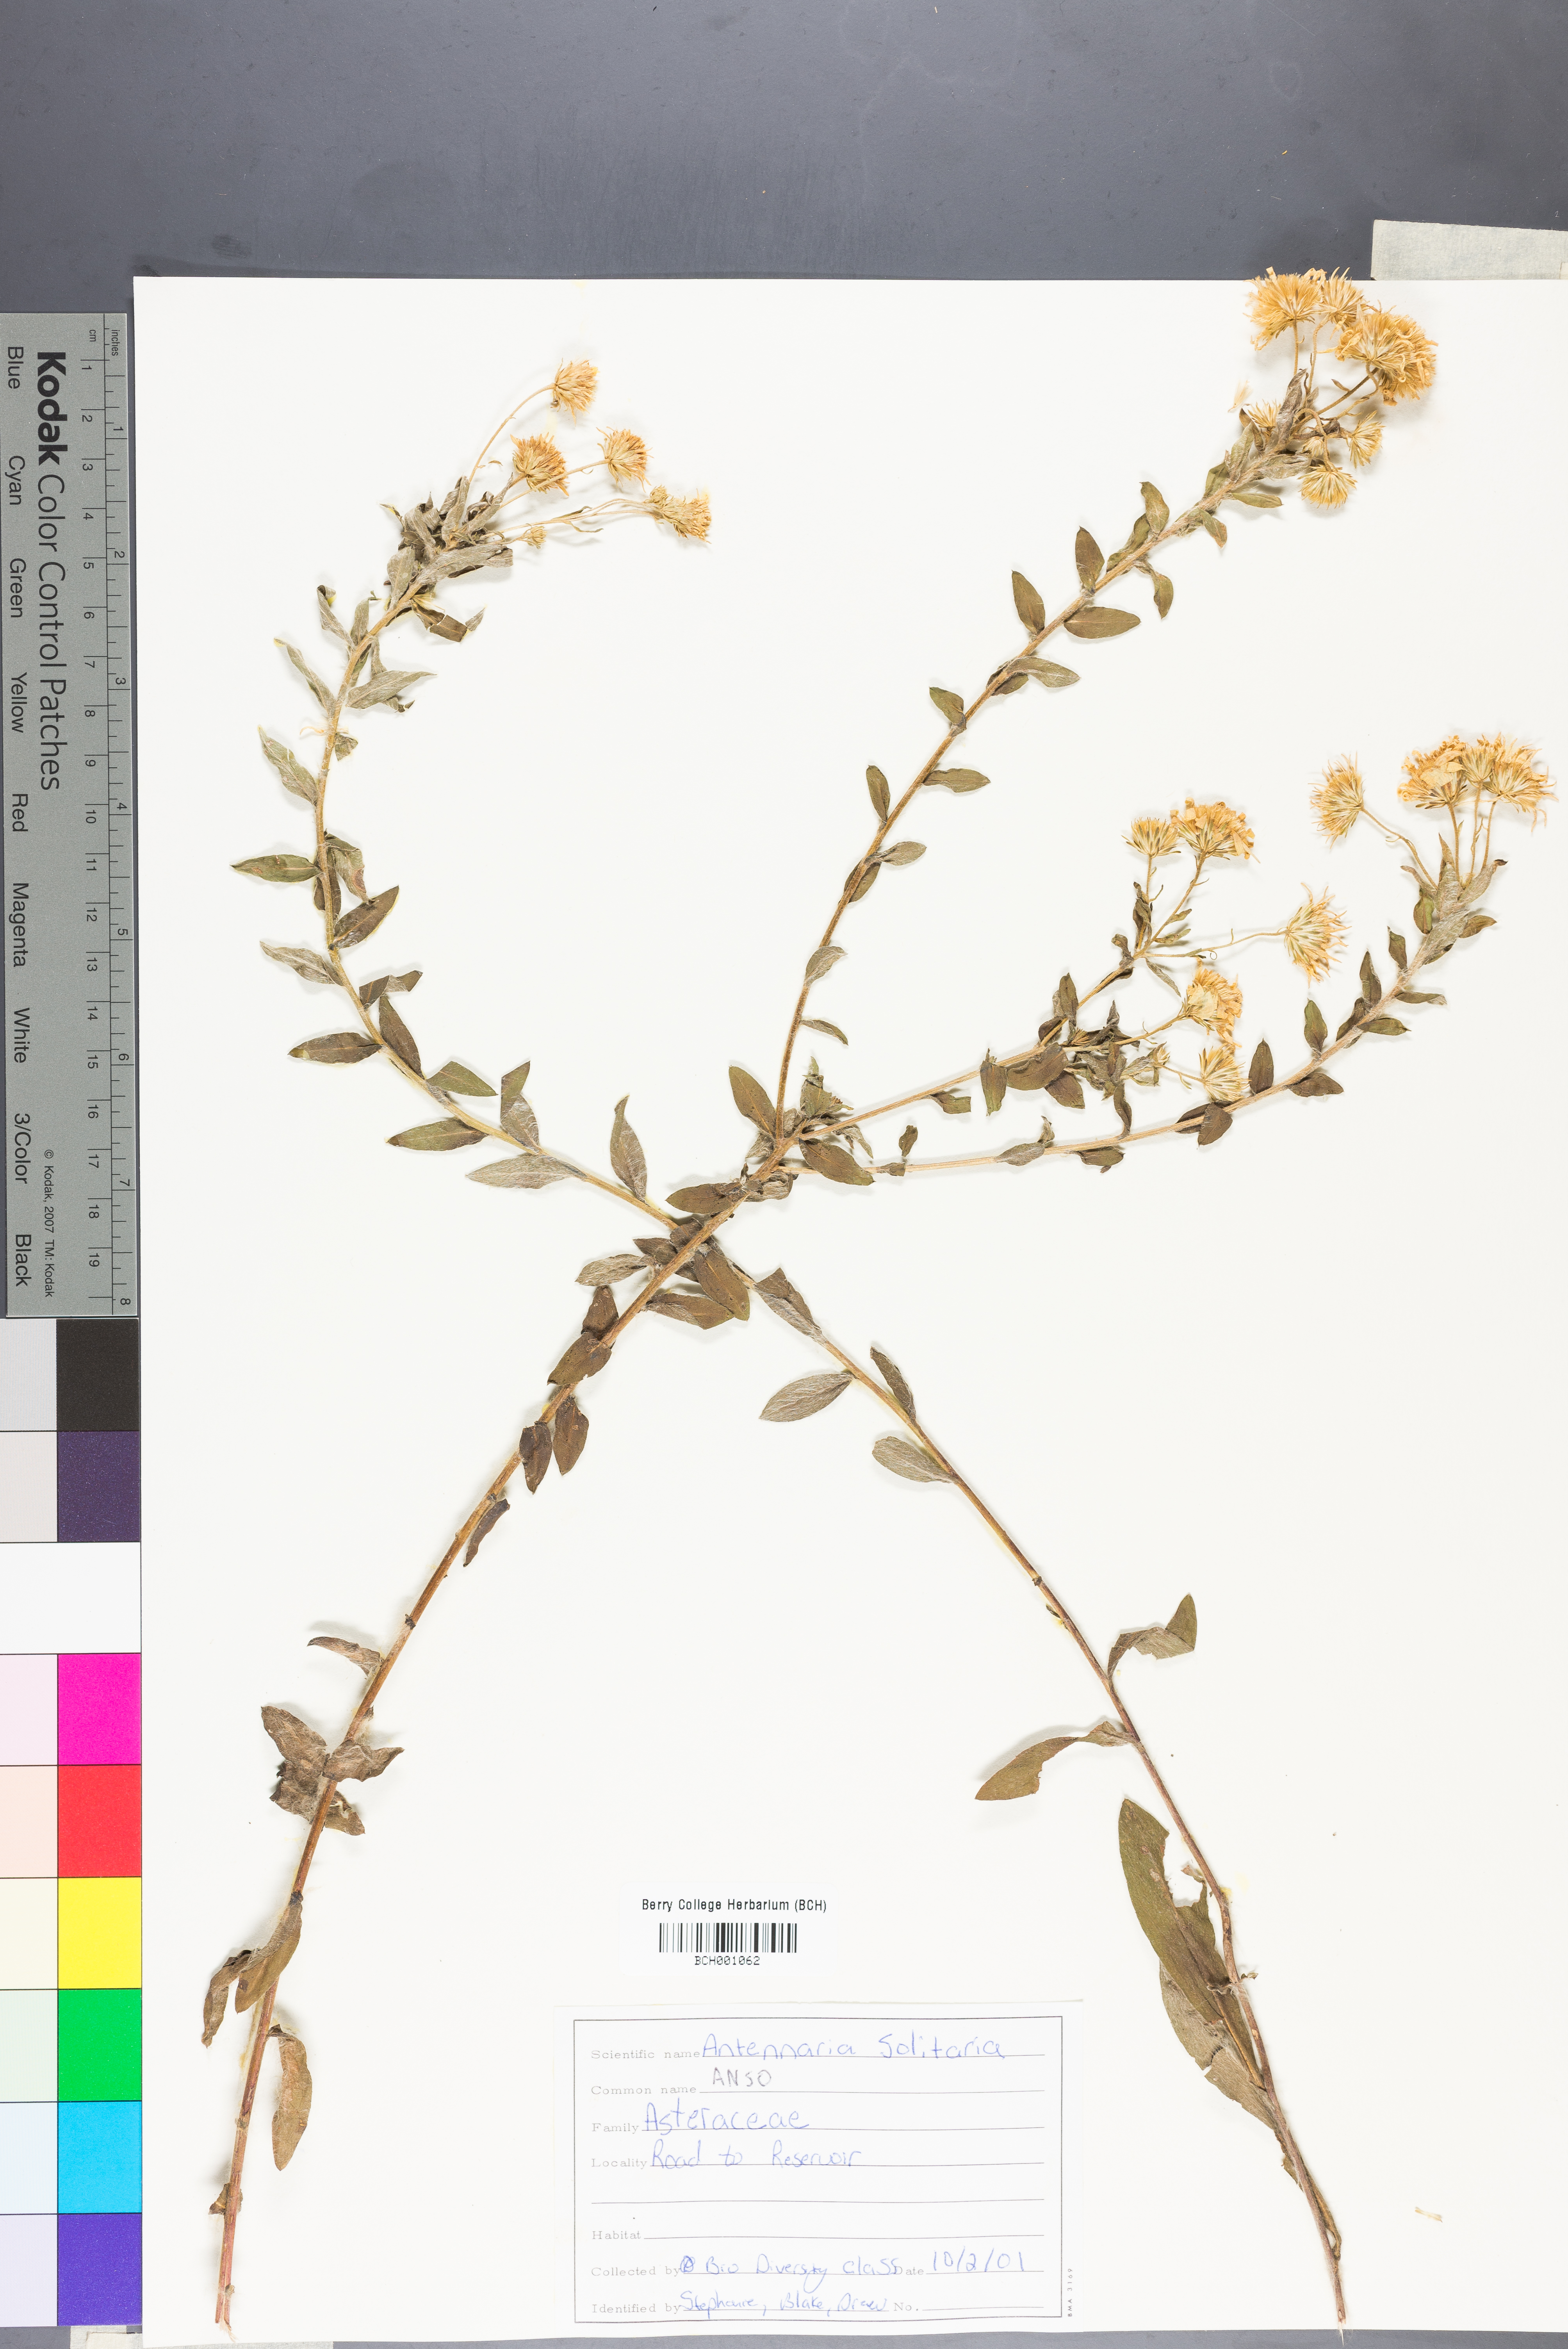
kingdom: Plantae
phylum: Tracheophyta
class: Magnoliopsida
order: Asterales
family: Asteraceae
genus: Antennaria
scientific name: Antennaria solitaria
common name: Single-head pussytoes
